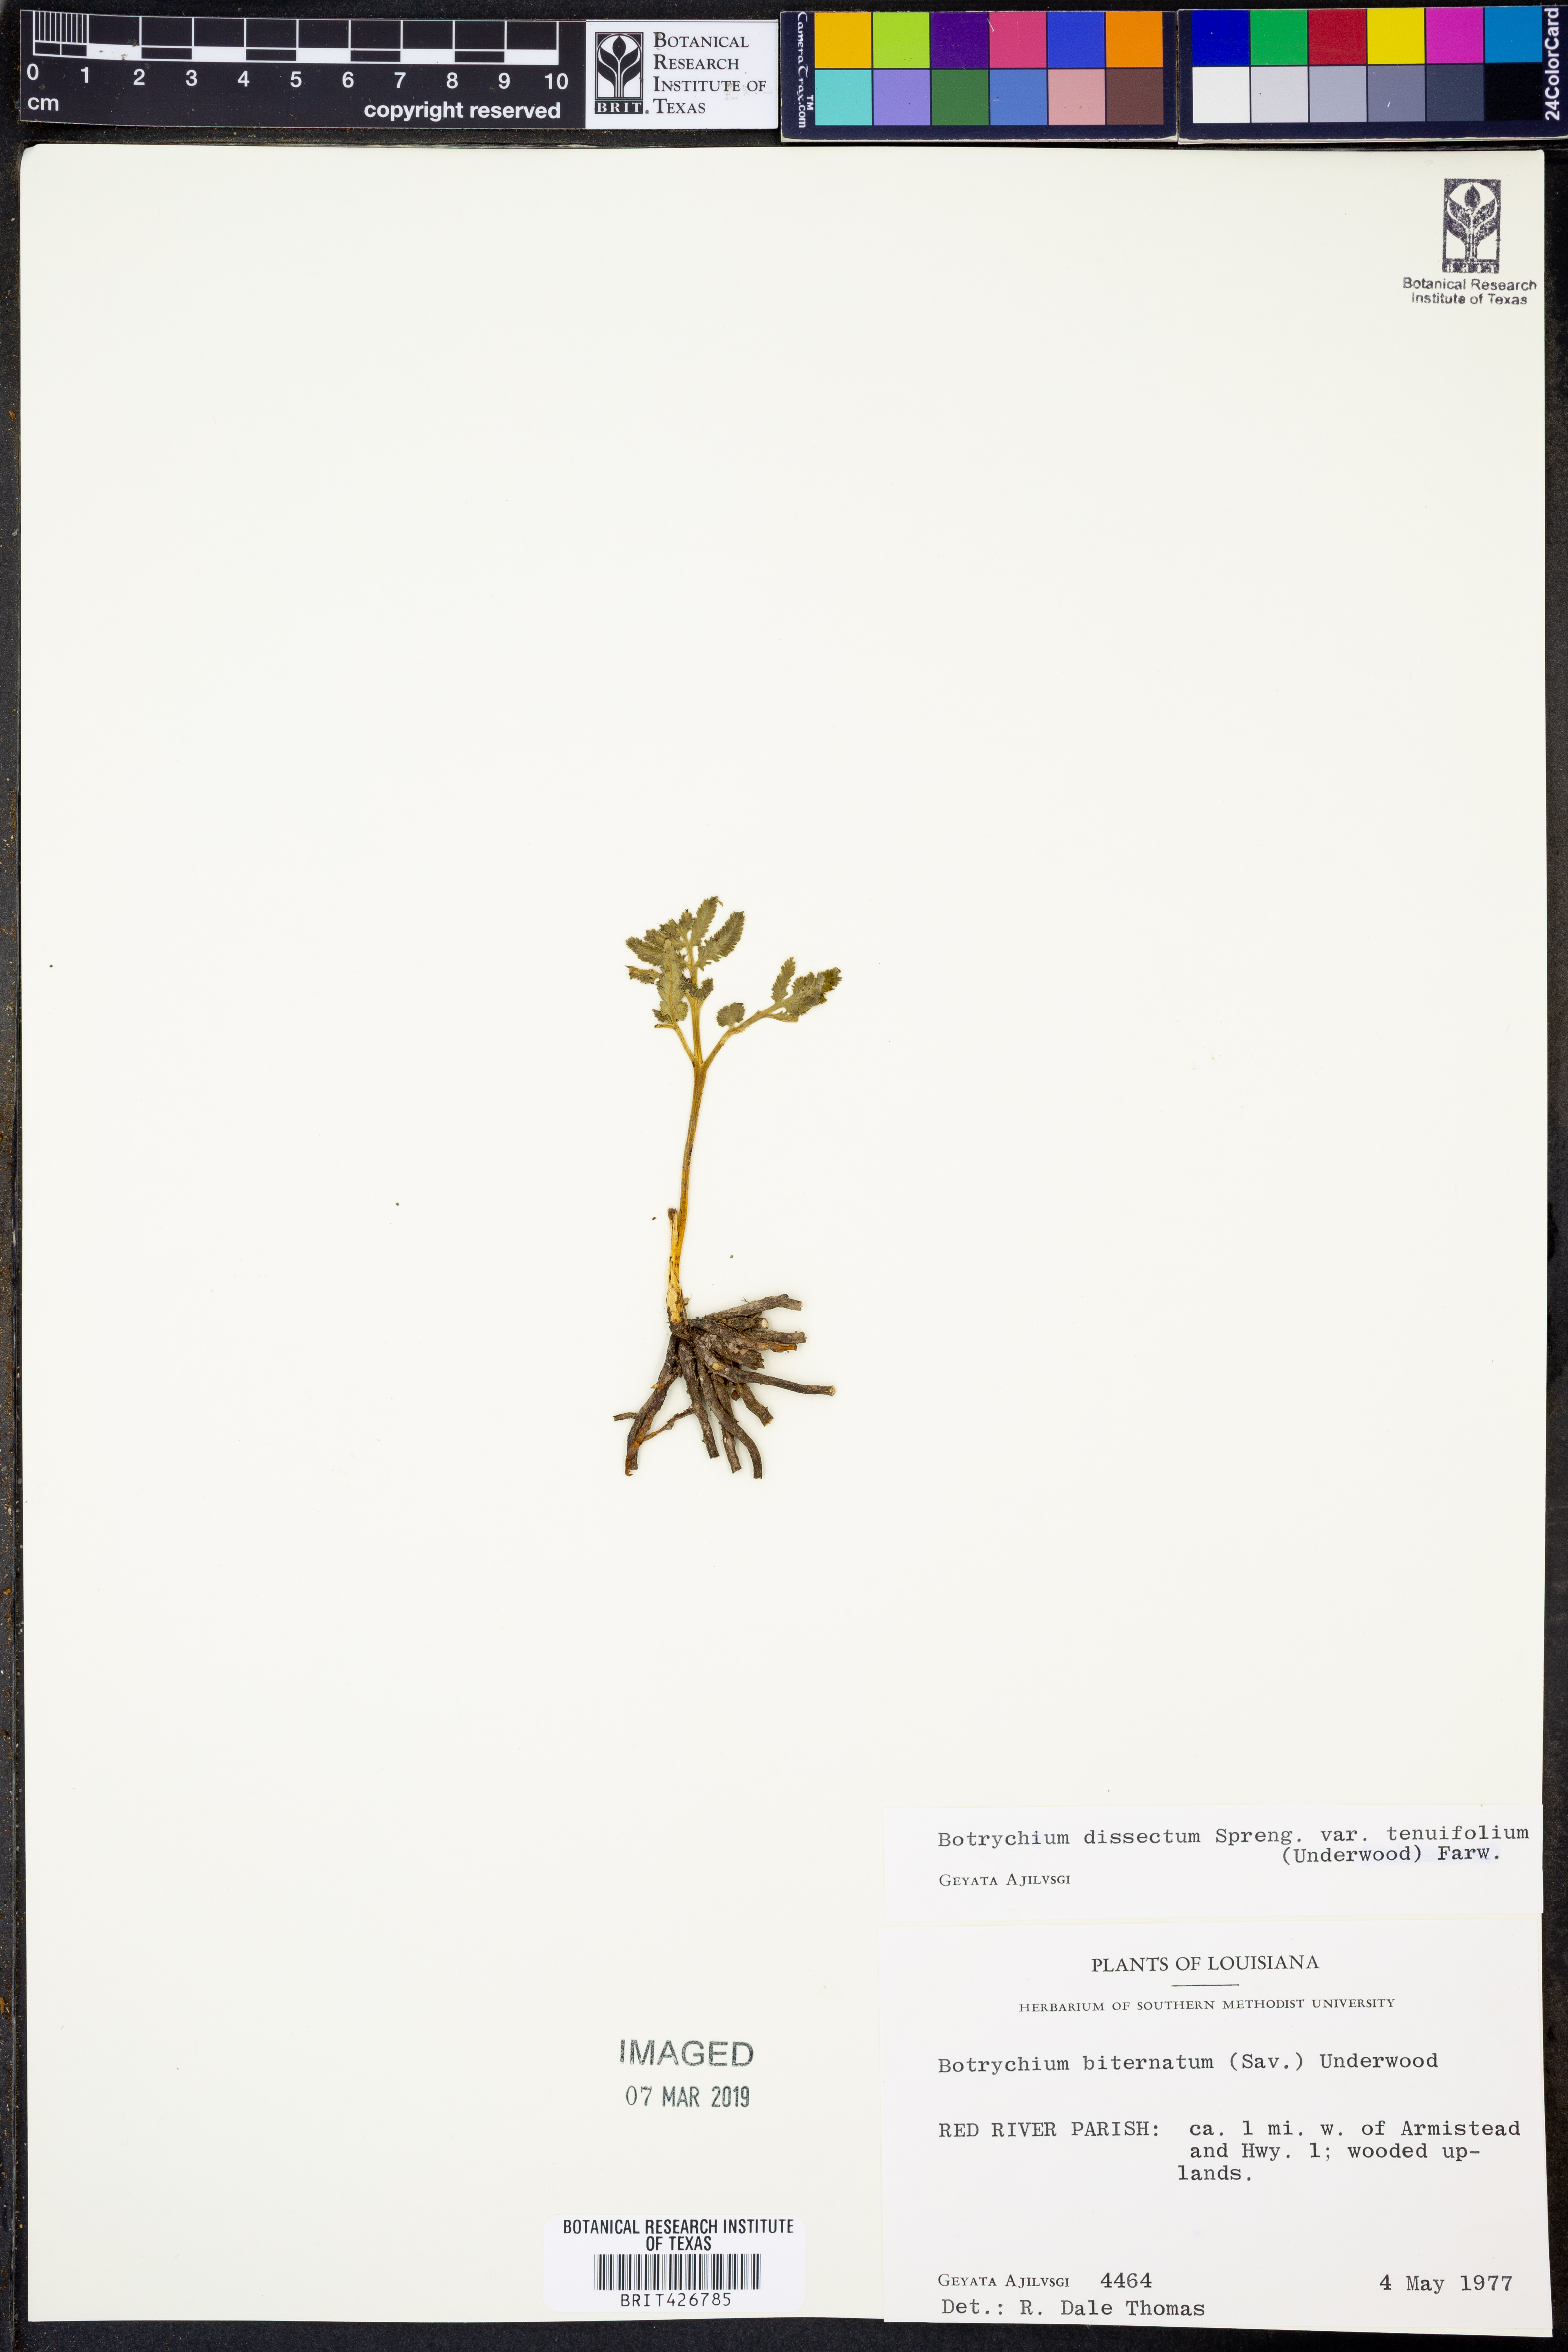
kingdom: Plantae
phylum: Tracheophyta
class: Polypodiopsida
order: Ophioglossales
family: Ophioglossaceae
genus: Sceptridium
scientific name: Sceptridium biternatum
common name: Sparse-lobed grapefern
